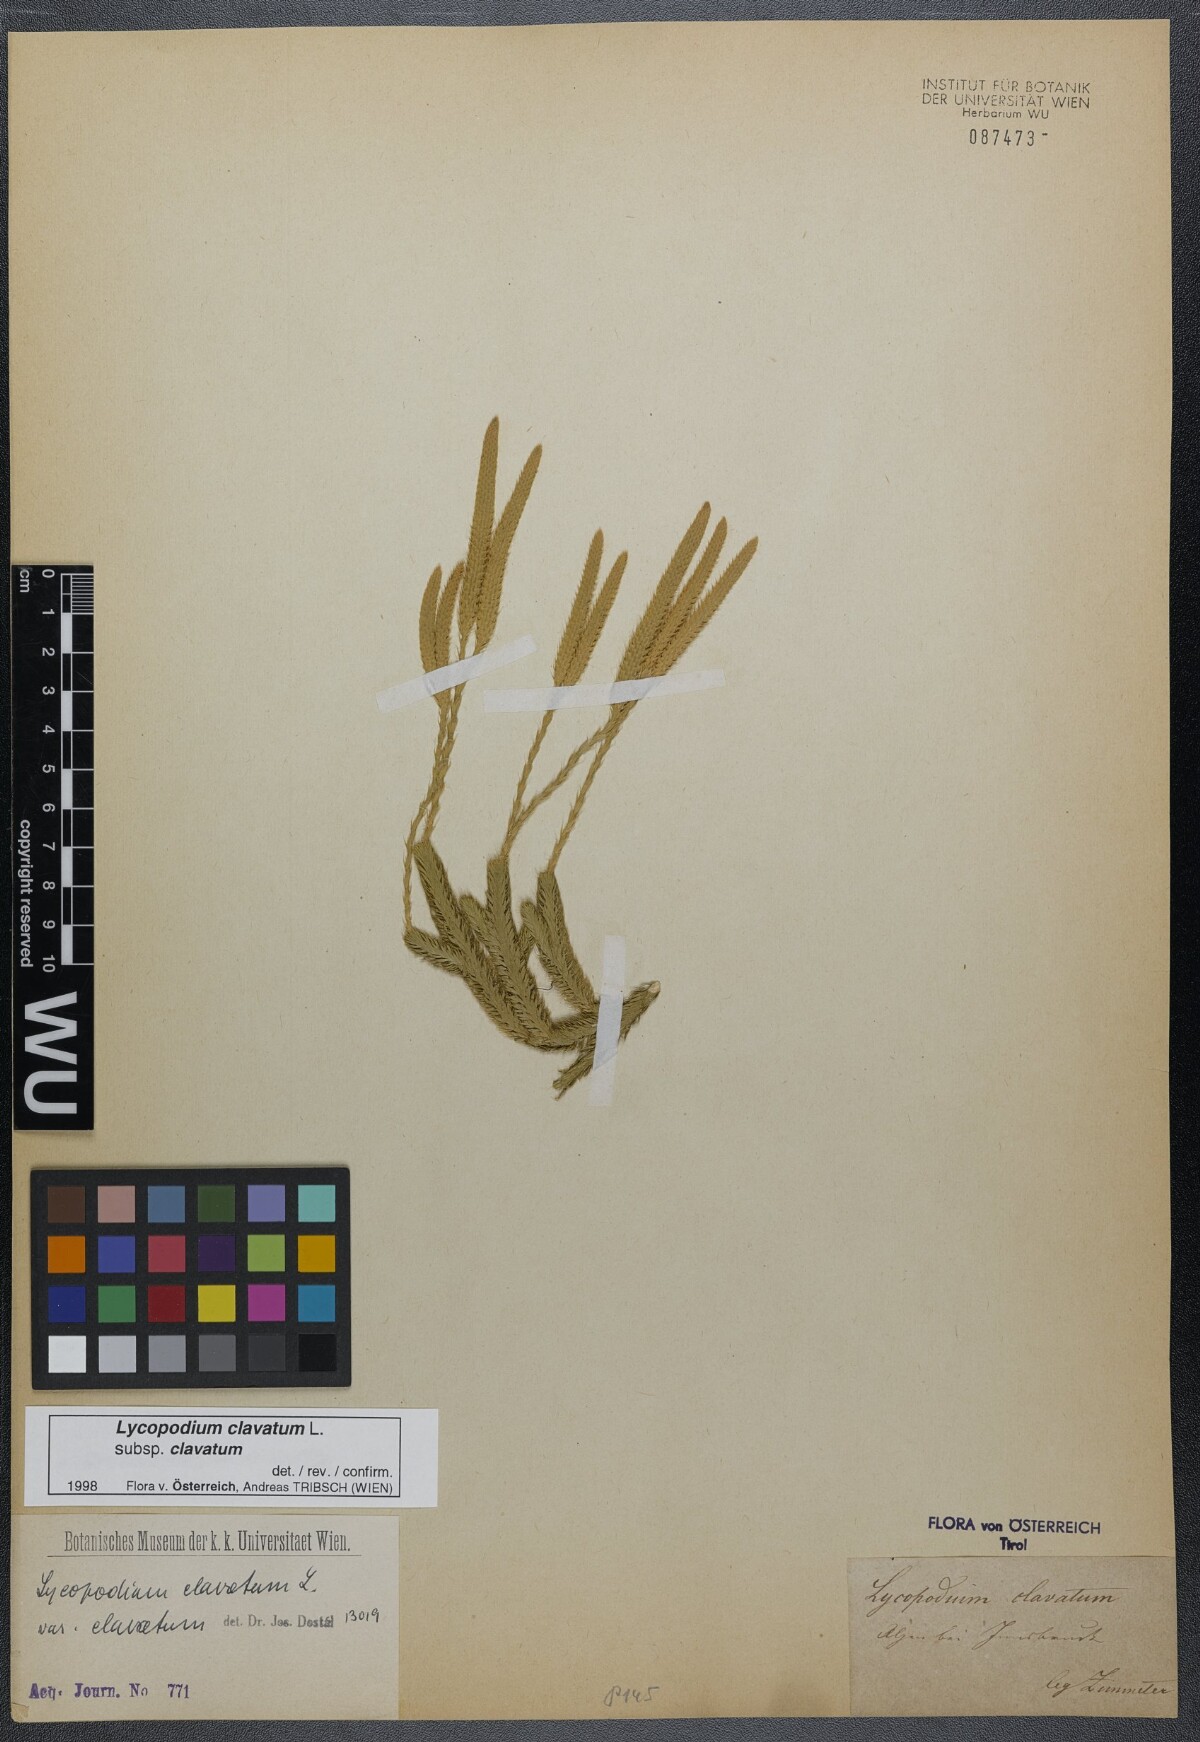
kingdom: Plantae
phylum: Tracheophyta
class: Lycopodiopsida
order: Lycopodiales
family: Lycopodiaceae
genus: Lycopodium
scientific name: Lycopodium clavatum
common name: Stag's-horn clubmoss
